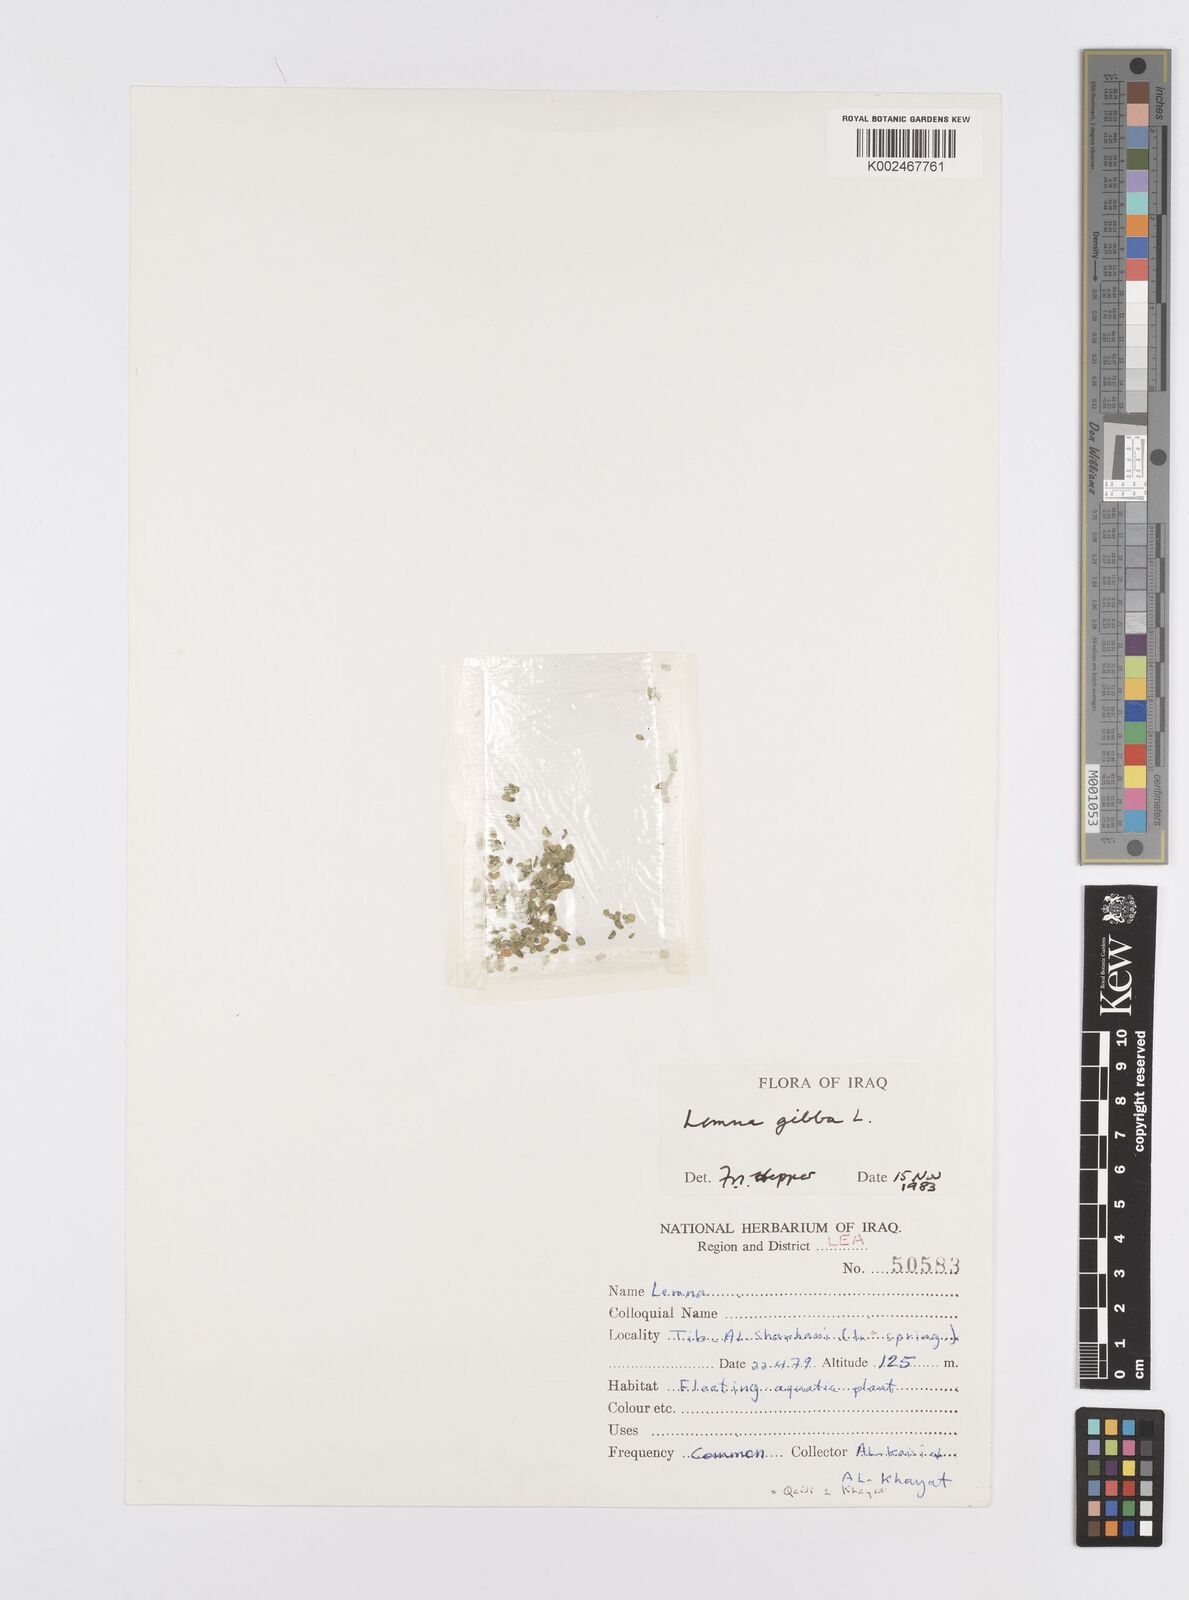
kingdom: Plantae
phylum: Tracheophyta
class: Liliopsida
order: Alismatales
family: Araceae
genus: Lemna
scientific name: Lemna gibba
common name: Fat duckweed
